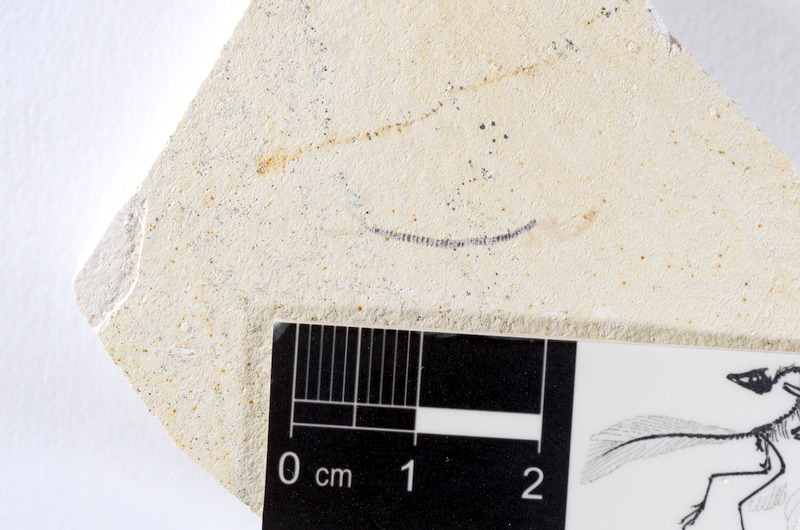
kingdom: Animalia
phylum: Chordata
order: Salmoniformes
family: Orthogonikleithridae
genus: Orthogonikleithrus
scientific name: Orthogonikleithrus hoelli
